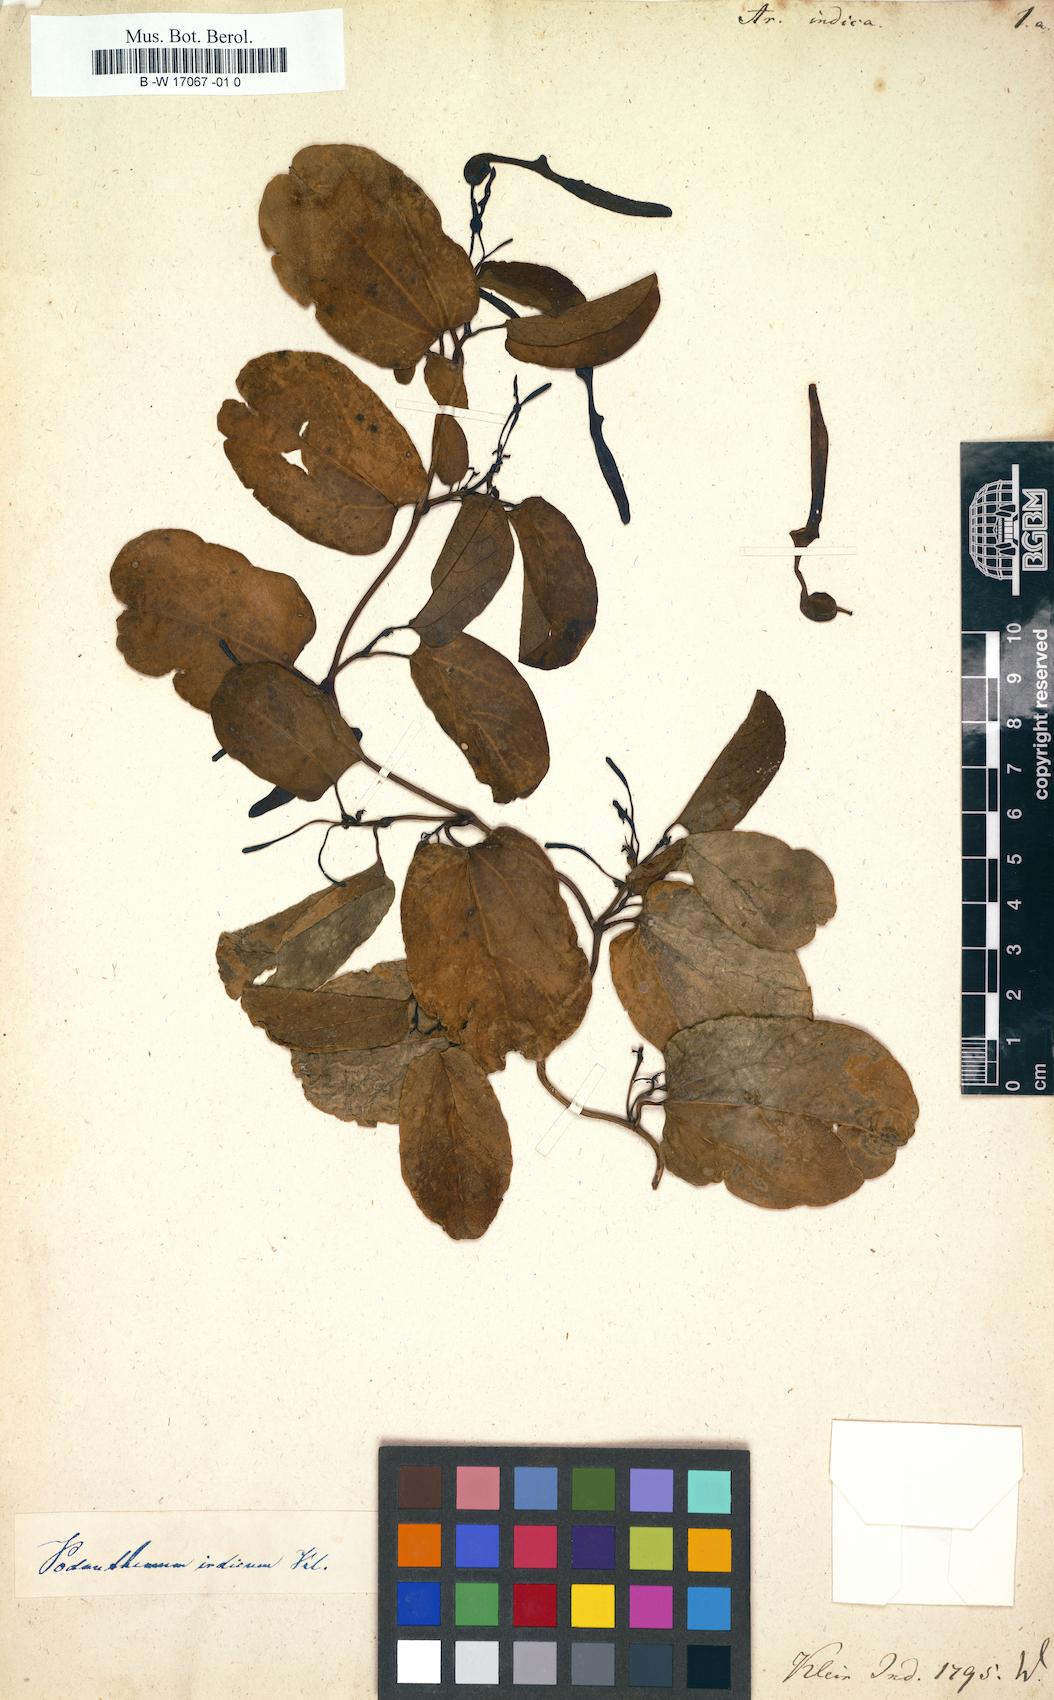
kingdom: Plantae
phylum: Tracheophyta
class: Magnoliopsida
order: Piperales
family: Aristolochiaceae
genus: Aristolochia
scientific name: Aristolochia indica
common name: Indian birthwort
